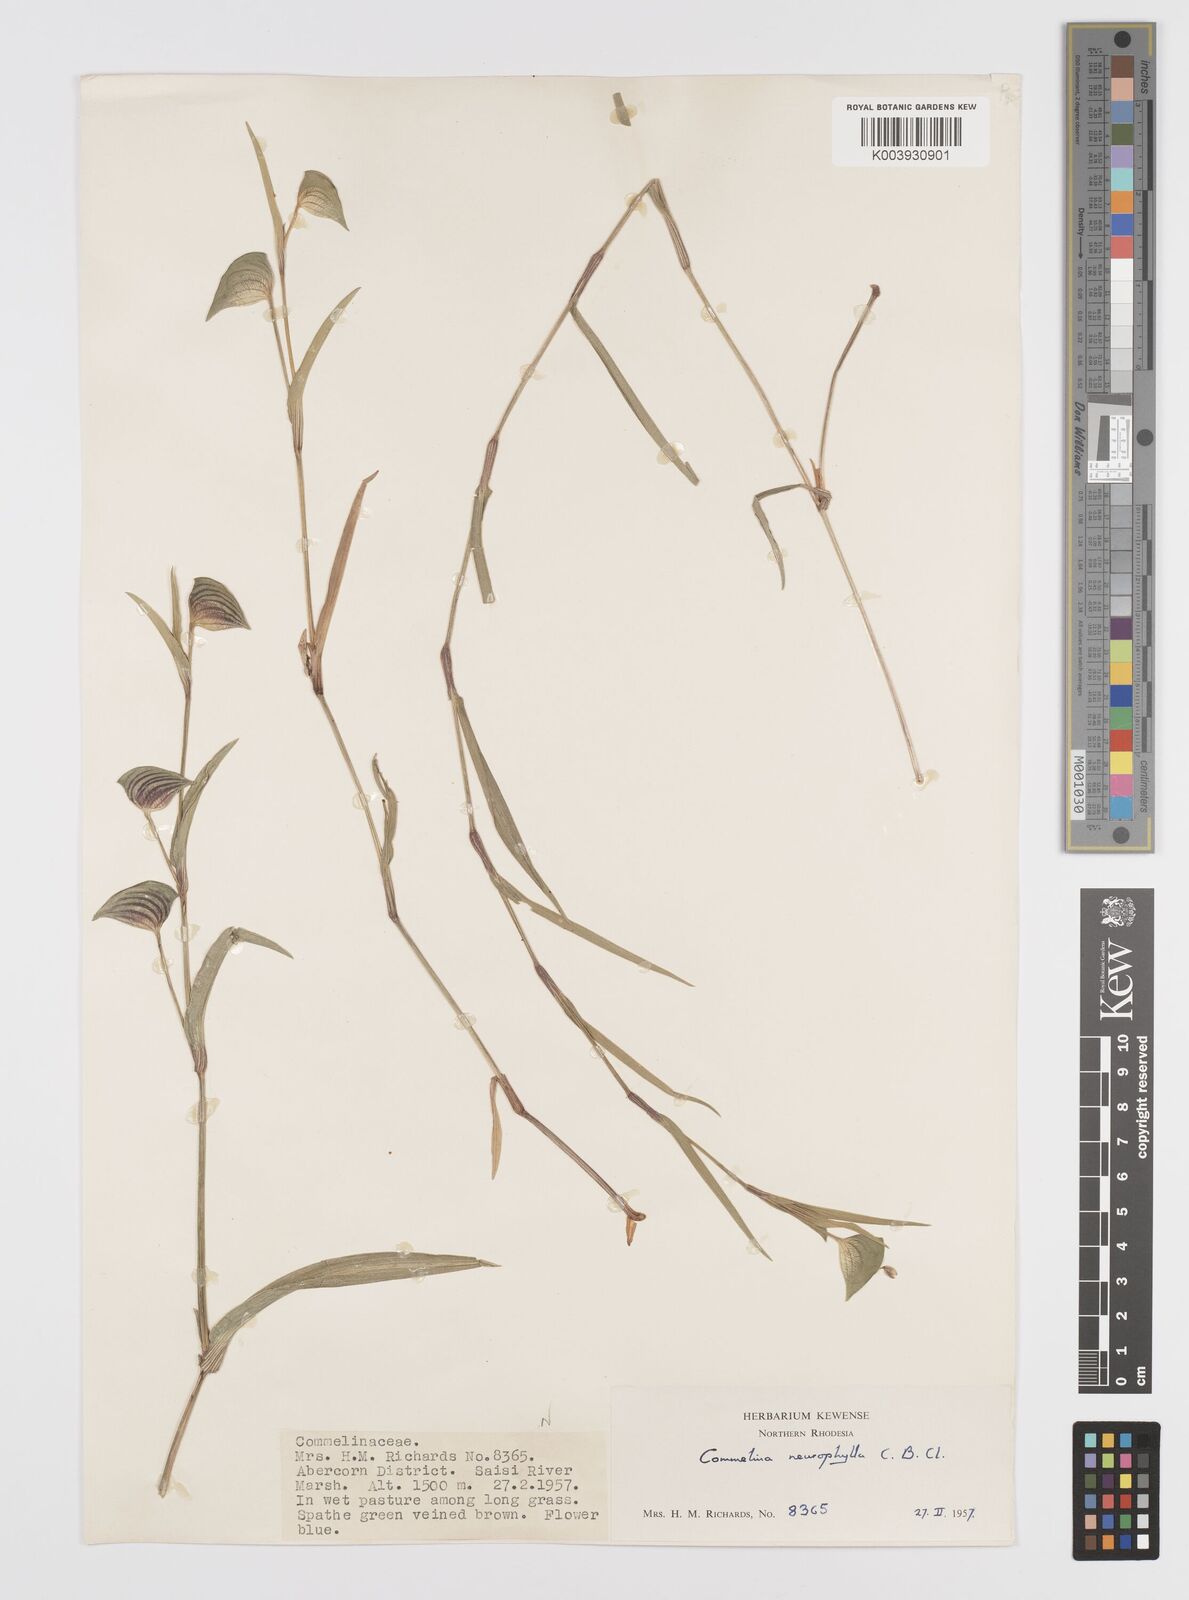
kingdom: Plantae
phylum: Tracheophyta
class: Liliopsida
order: Commelinales
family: Commelinaceae
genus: Commelina
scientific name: Commelina neurophylla
